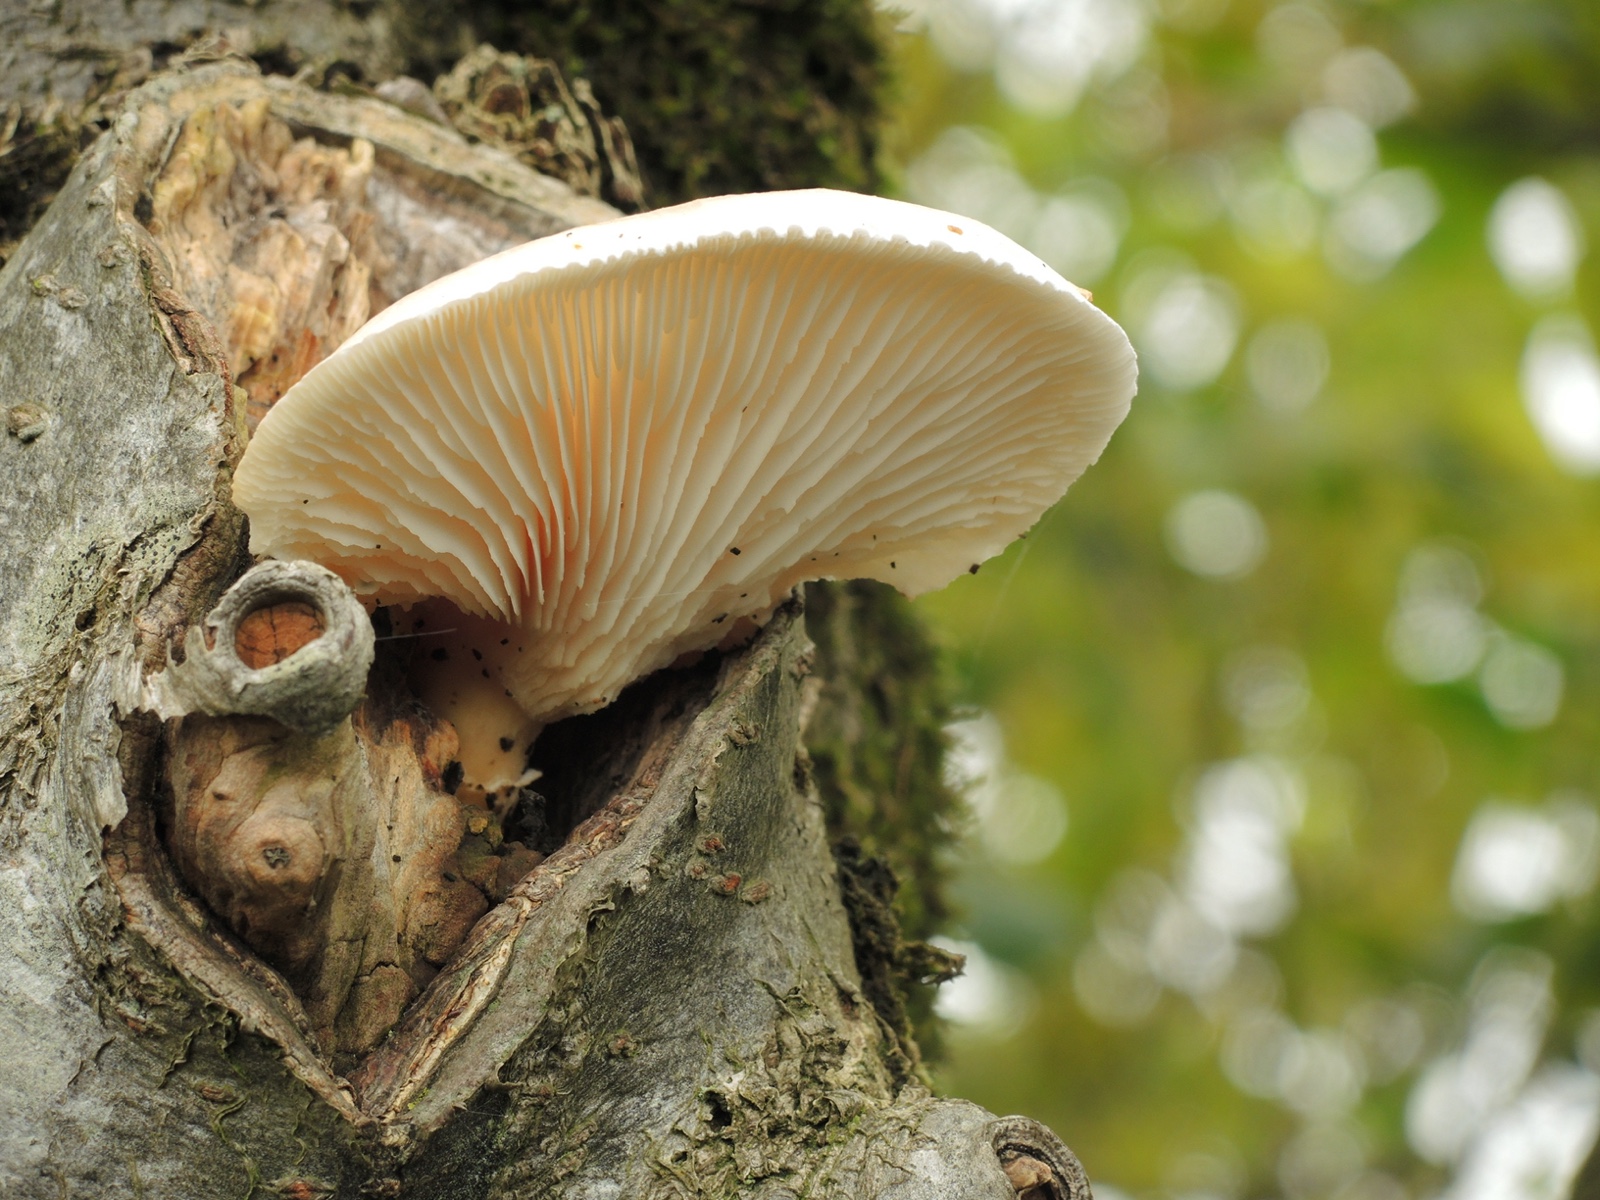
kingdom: Fungi
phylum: Basidiomycota
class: Agaricomycetes
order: Agaricales
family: Pleurotaceae
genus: Pleurotus
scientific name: Pleurotus dryinus
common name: korkagtig østershat
